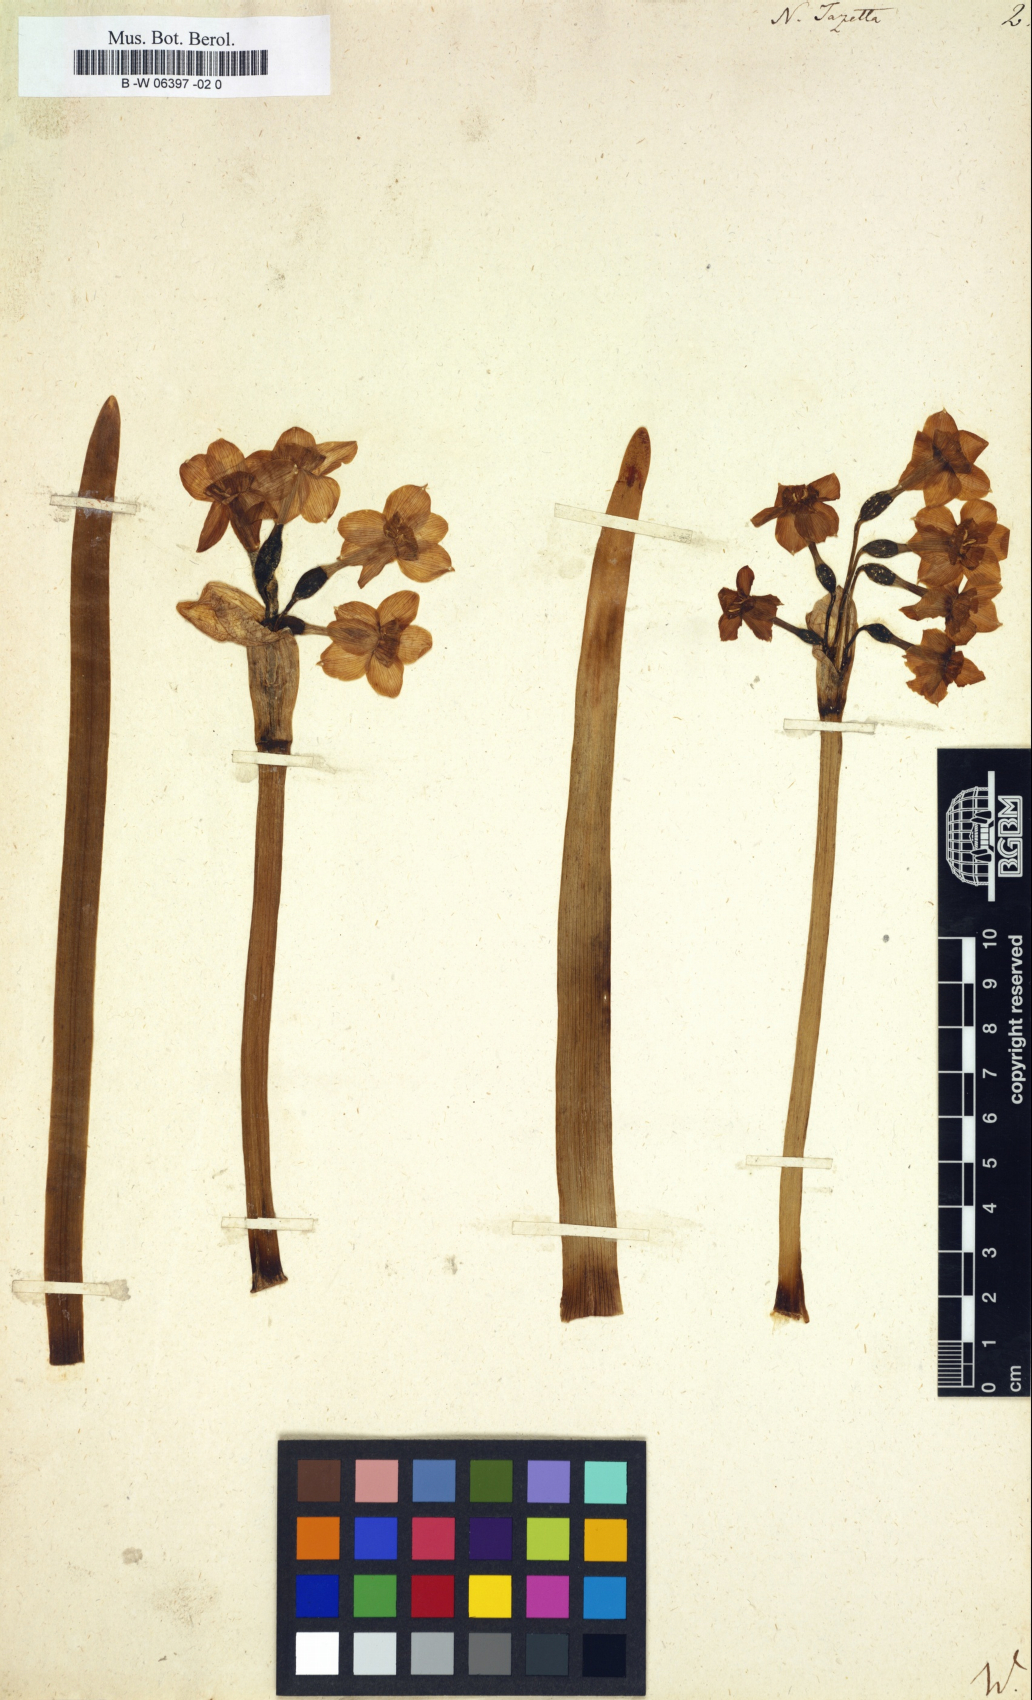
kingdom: Plantae
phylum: Tracheophyta
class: Liliopsida
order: Asparagales
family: Amaryllidaceae
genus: Narcissus
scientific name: Narcissus tazetta
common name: Bunch-flowered daffodil
